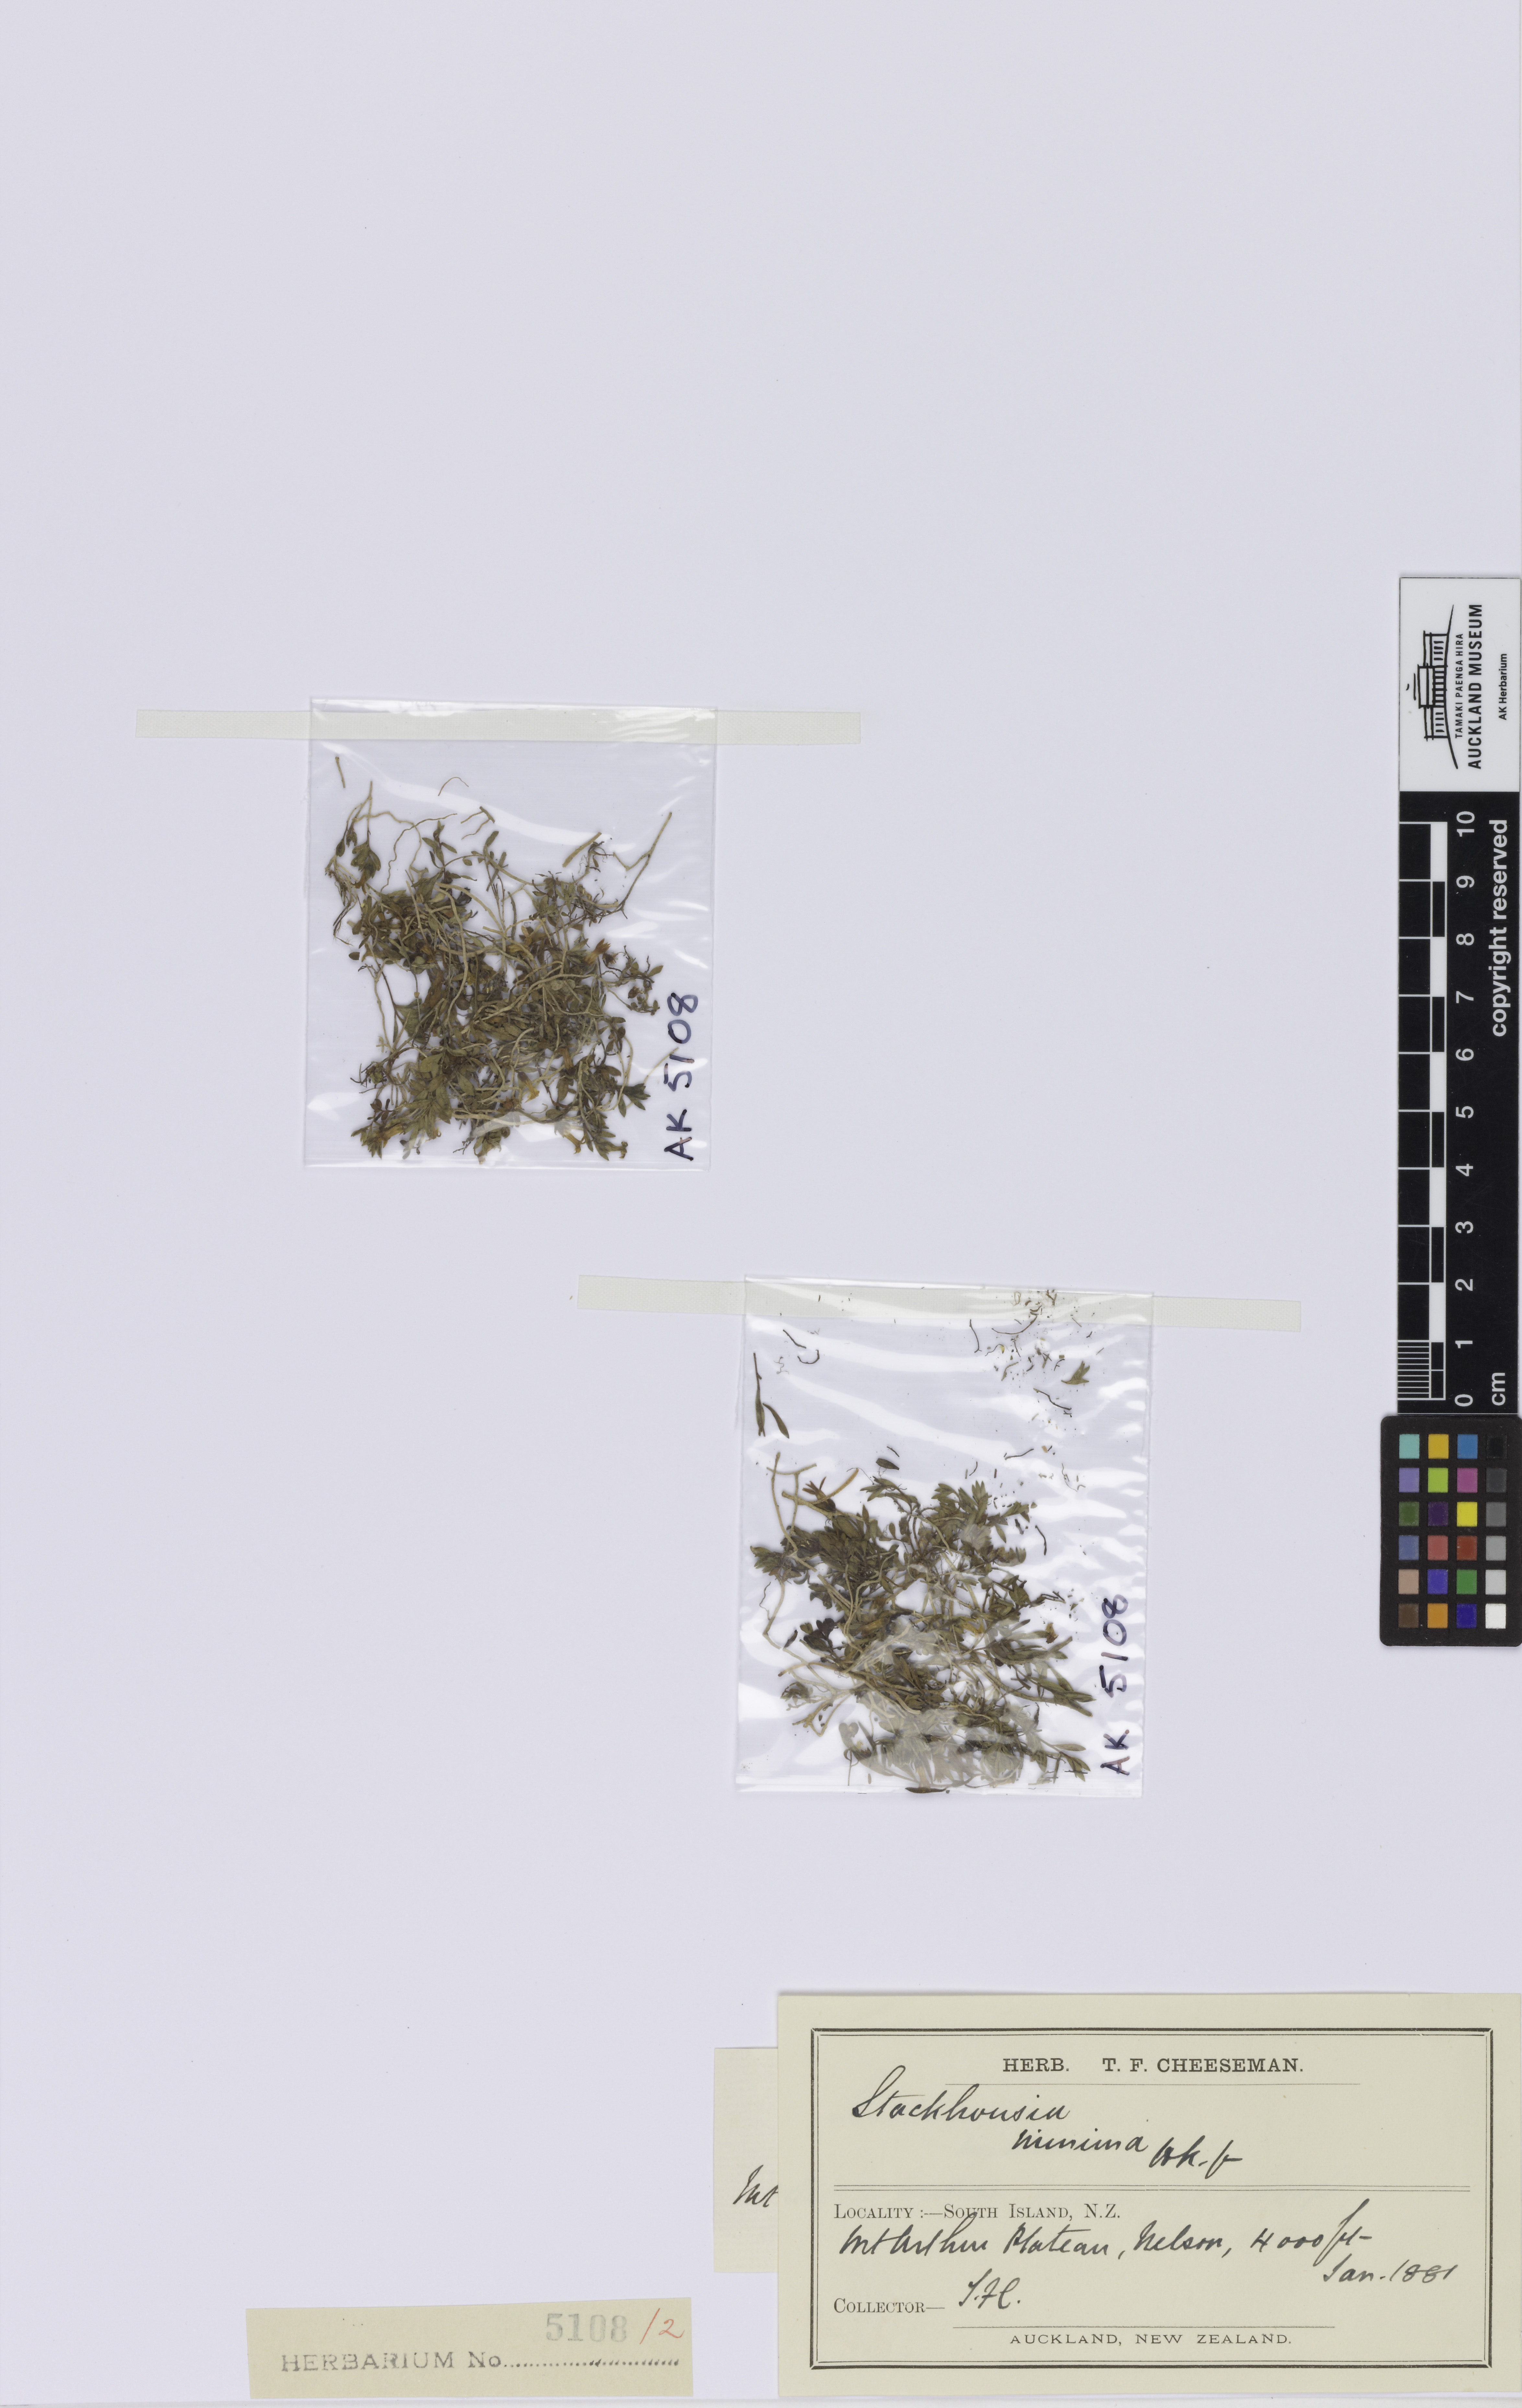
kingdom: Plantae
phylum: Tracheophyta
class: Magnoliopsida
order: Celastrales
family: Celastraceae
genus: Stackhousia
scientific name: Stackhousia minima
